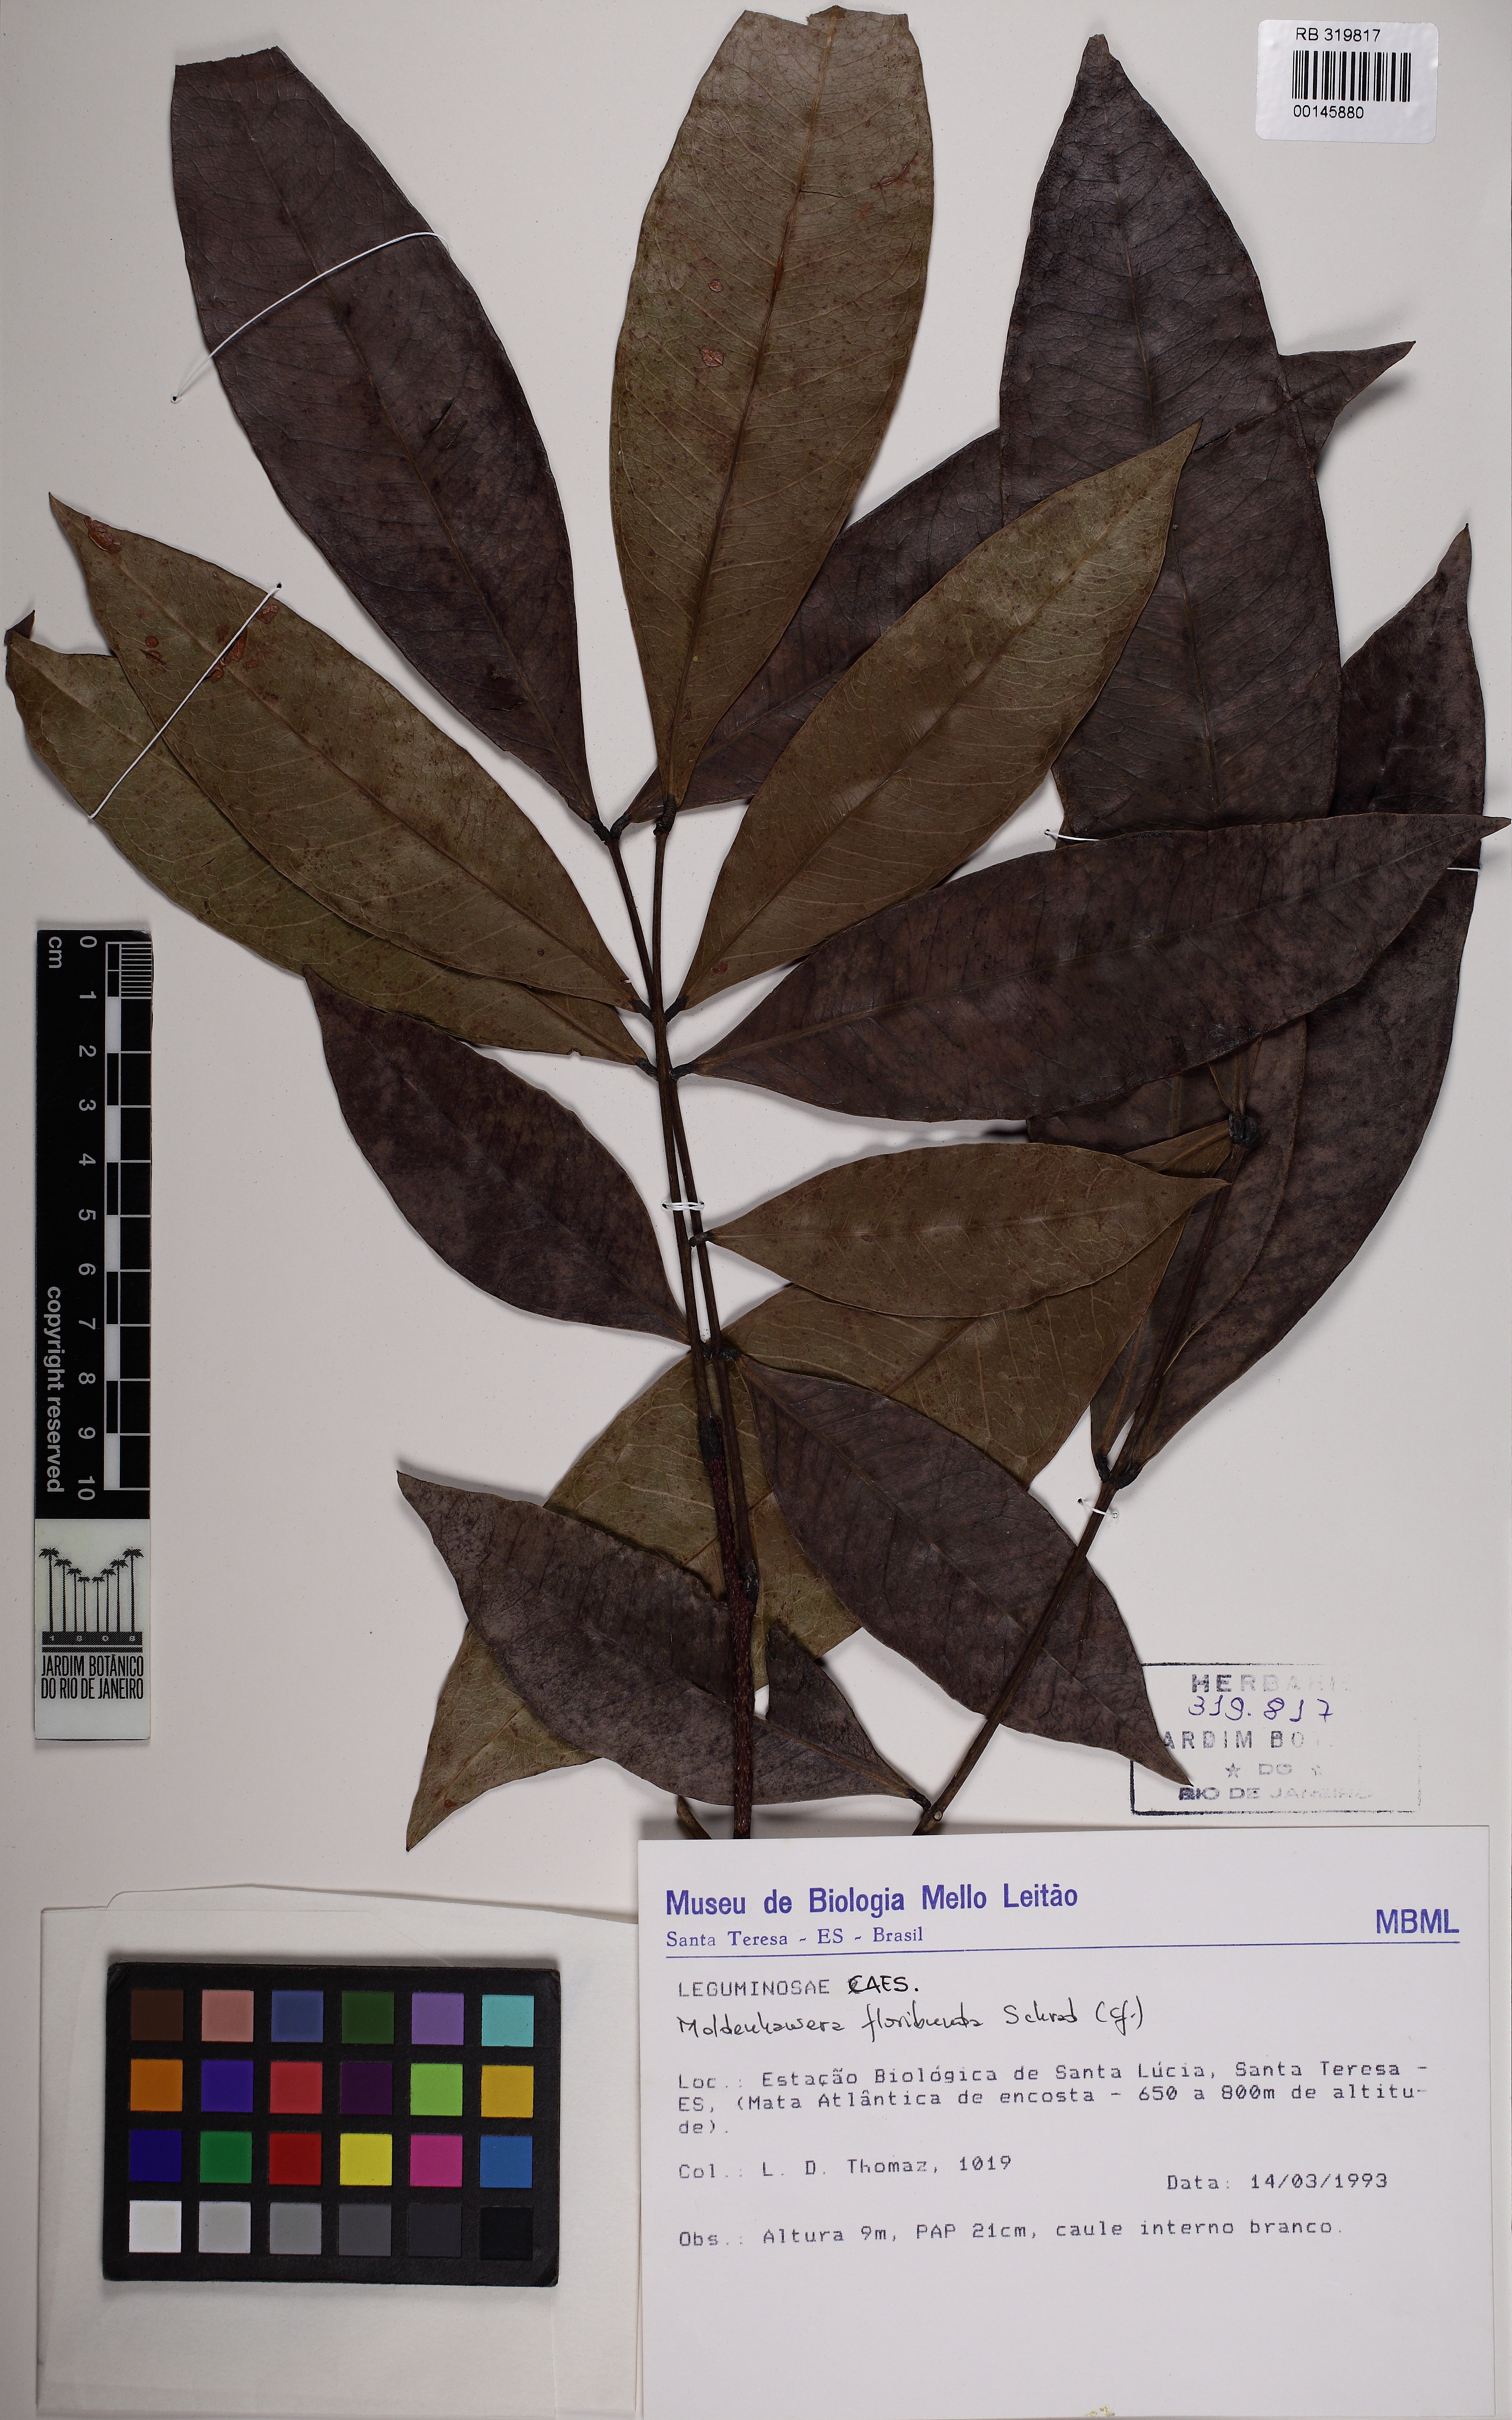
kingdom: Plantae
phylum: Tracheophyta
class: Magnoliopsida
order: Fabales
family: Fabaceae
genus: Moldenhawera
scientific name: Moldenhawera floribunda
